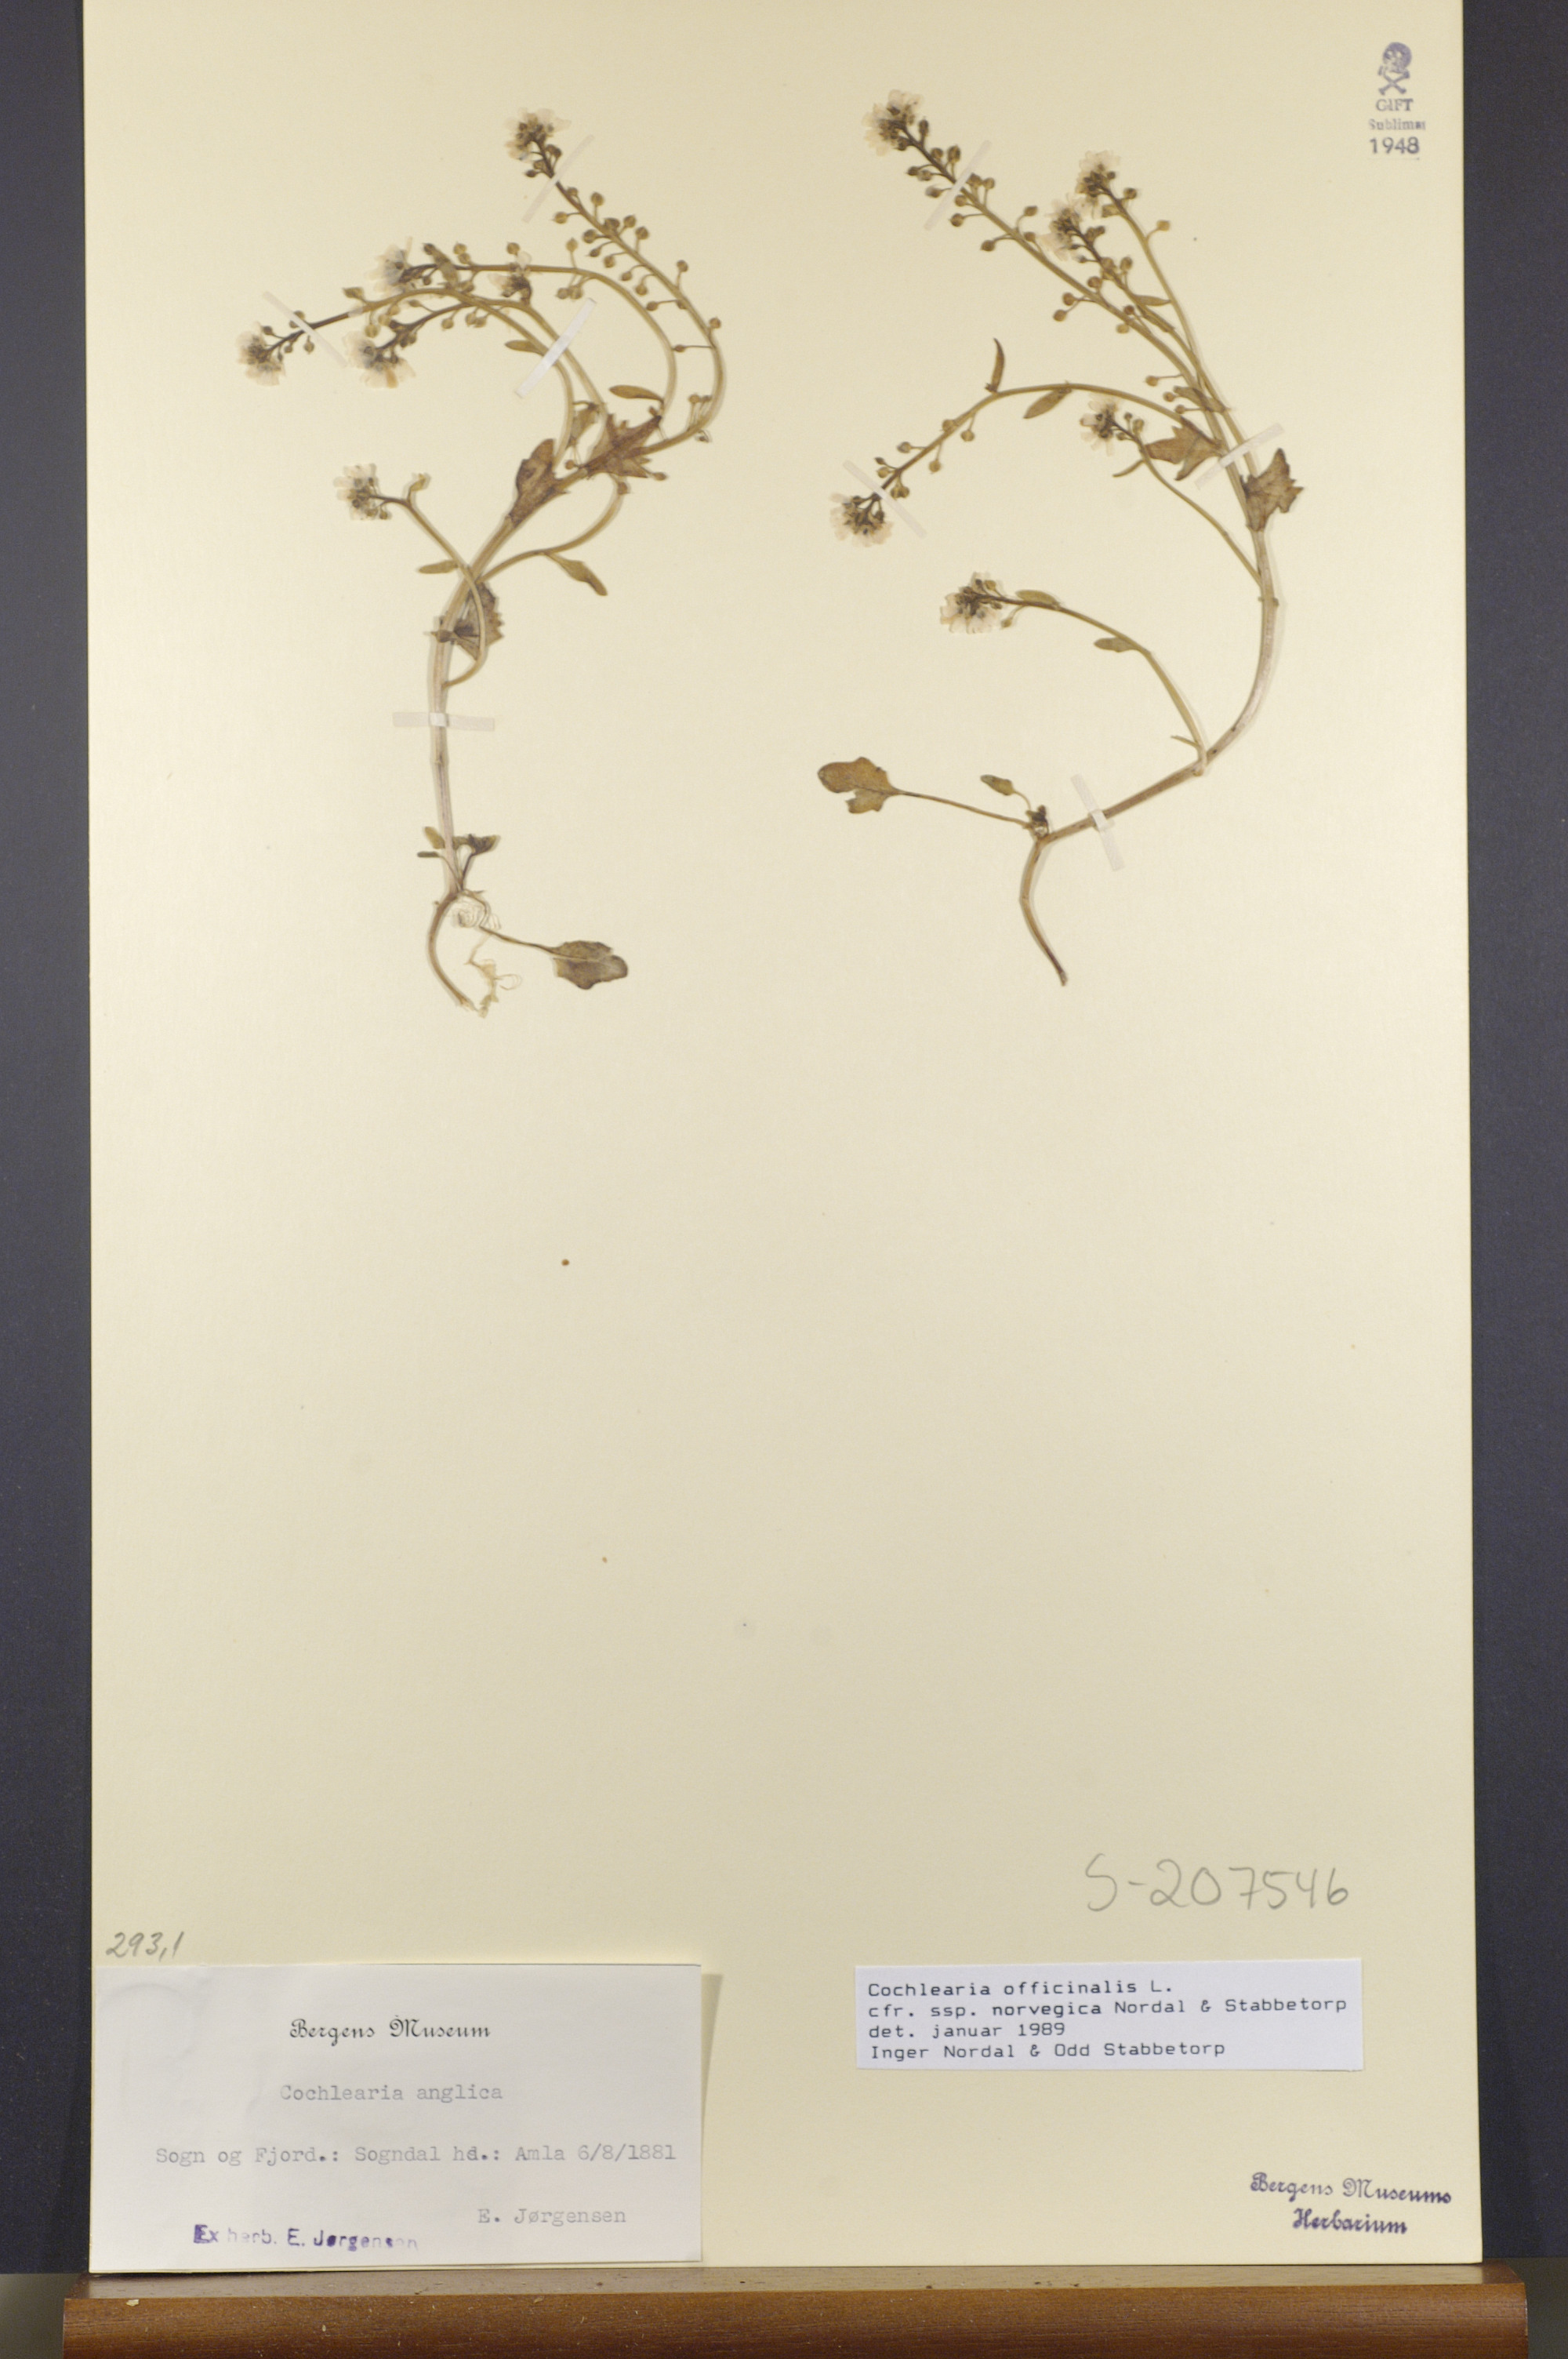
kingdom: Plantae
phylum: Tracheophyta
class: Magnoliopsida
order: Brassicales
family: Brassicaceae
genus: Cochlearia
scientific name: Cochlearia officinalis
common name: Scurvy-grass
